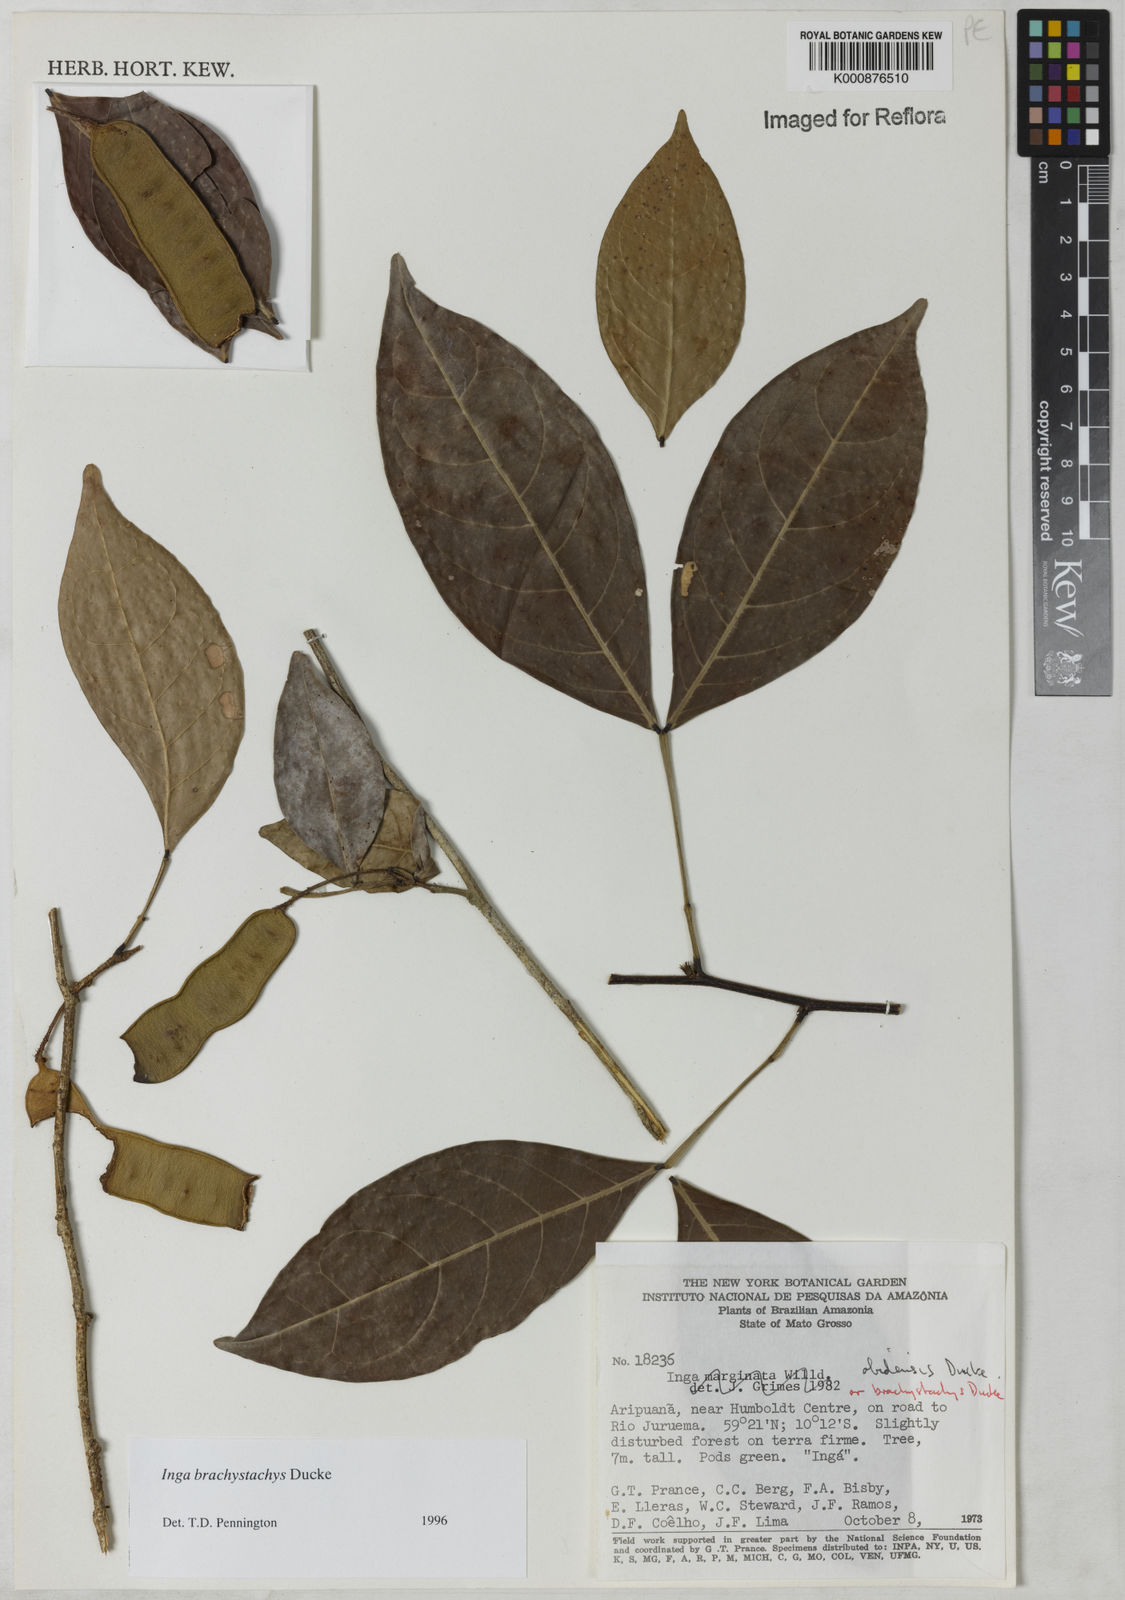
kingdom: Plantae
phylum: Tracheophyta
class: Magnoliopsida
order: Fabales
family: Fabaceae
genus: Inga
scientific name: Inga brachystachys
